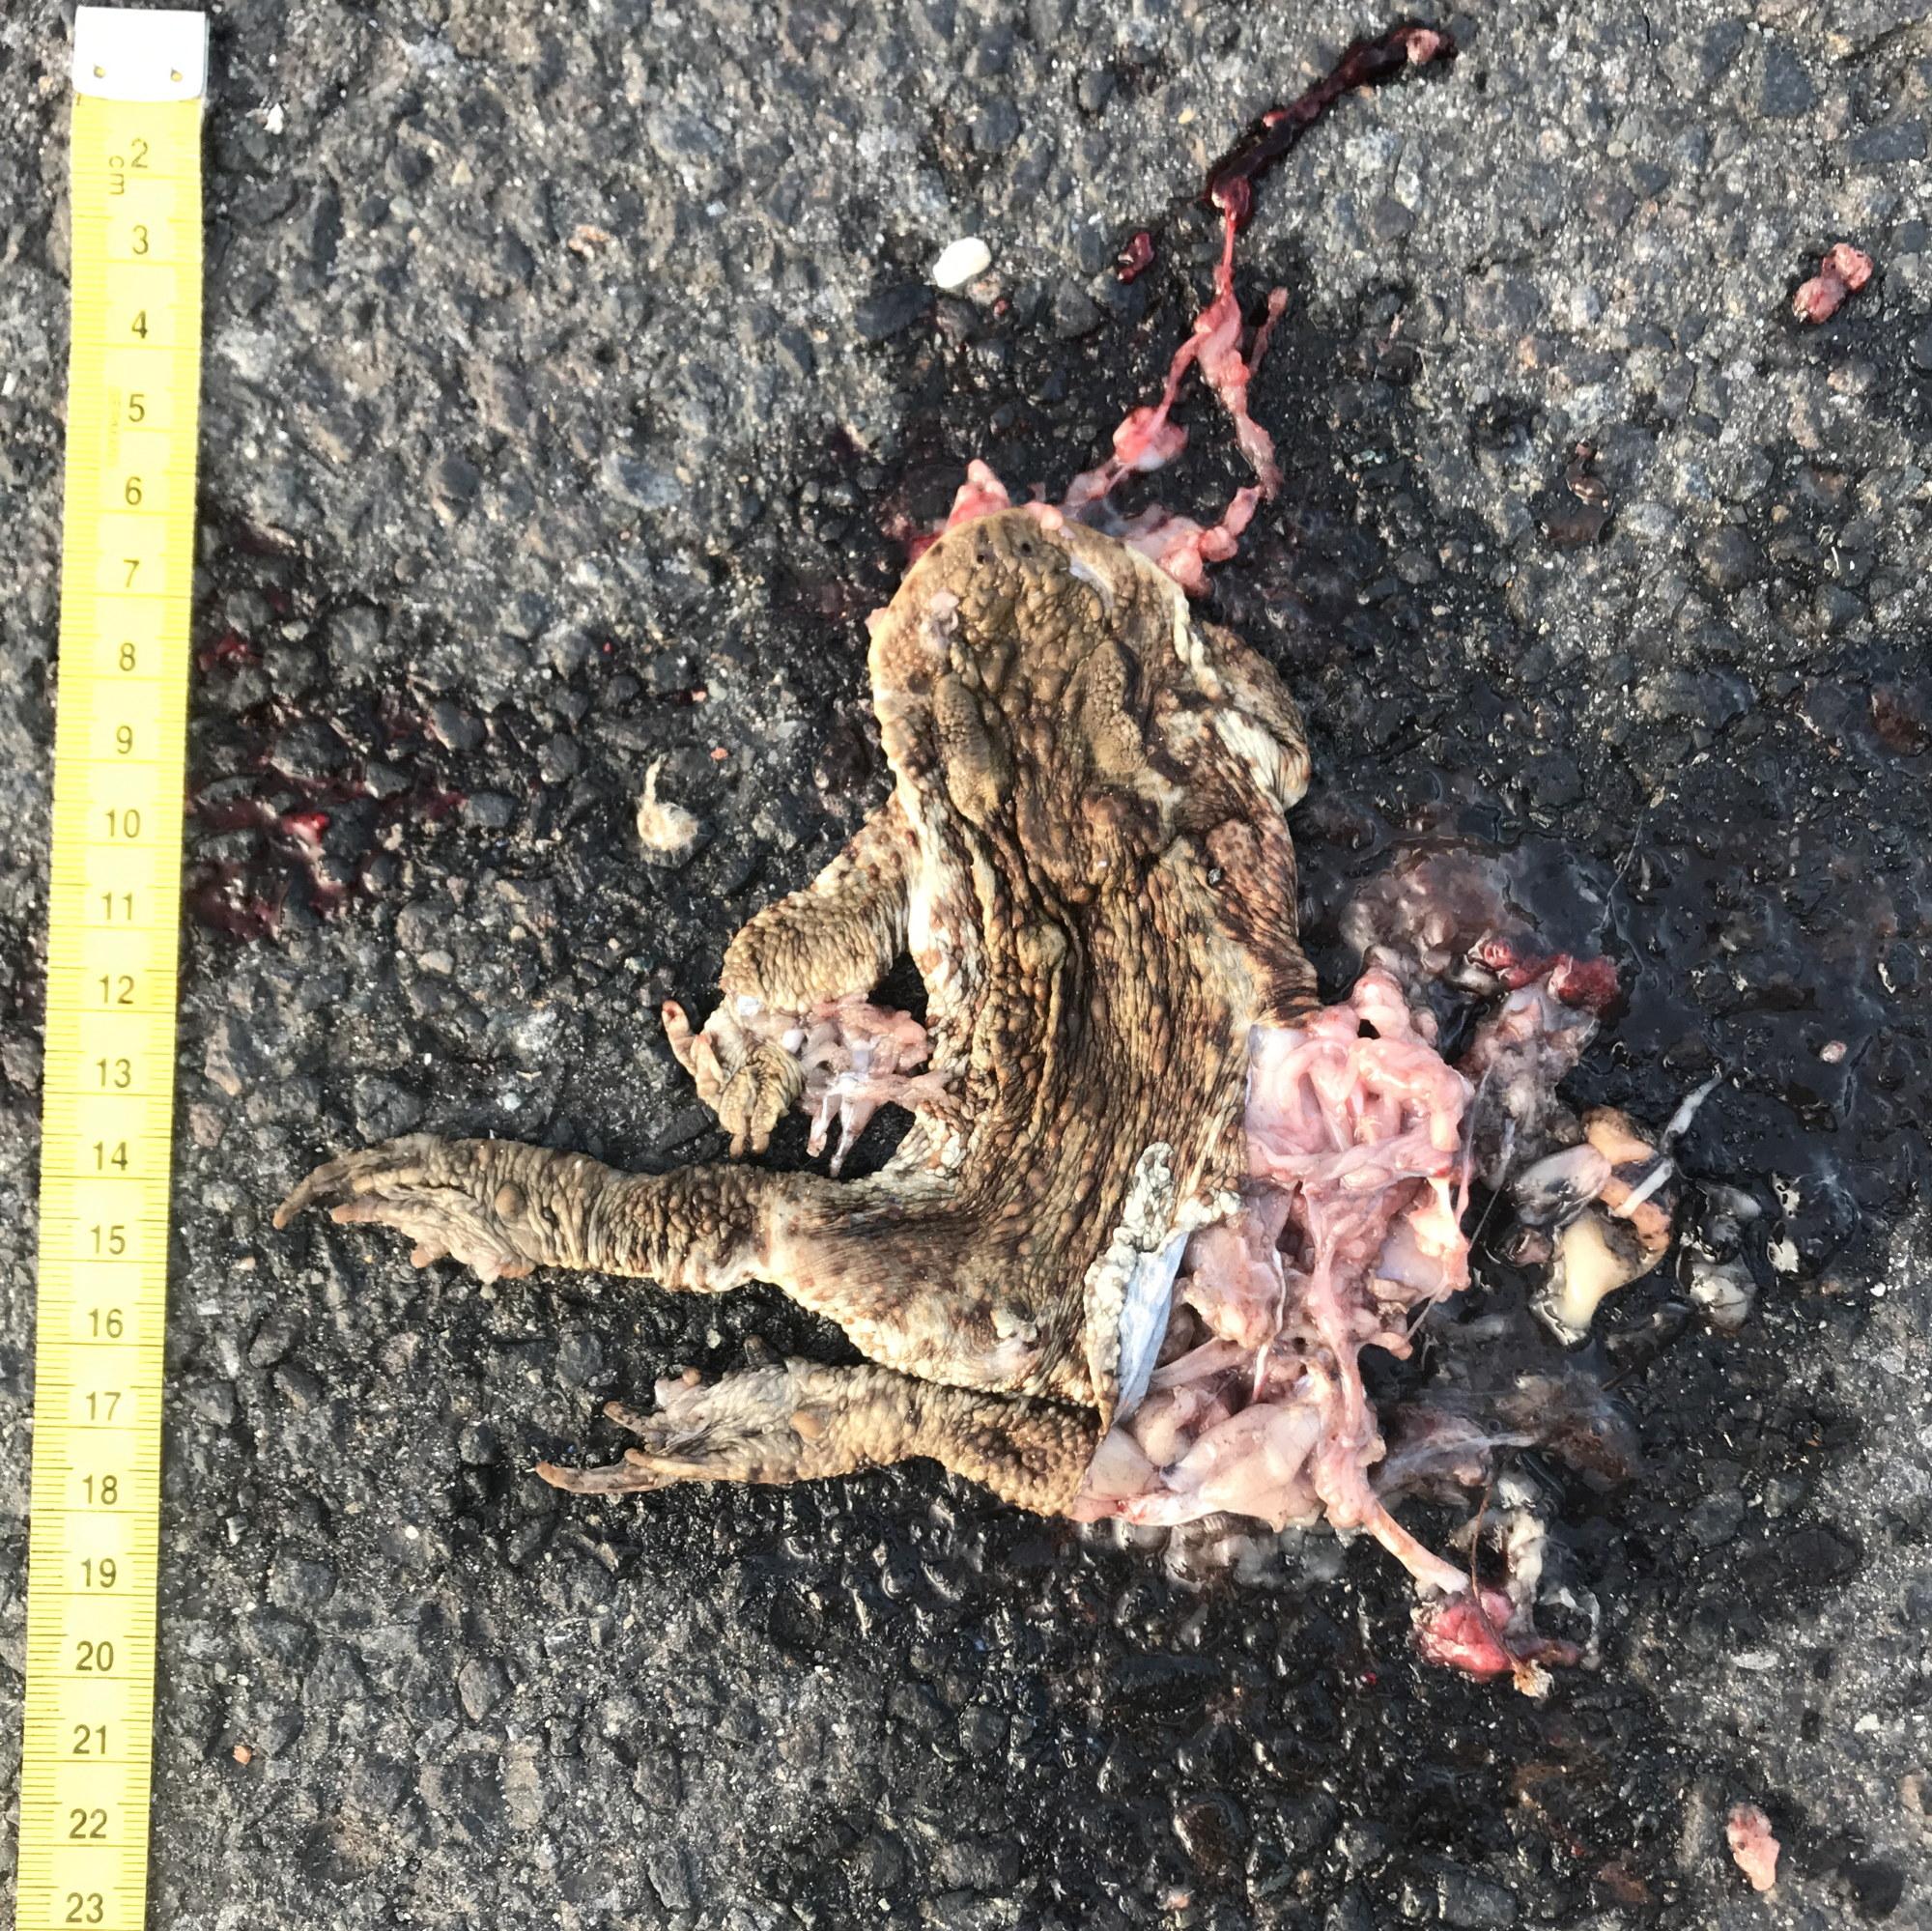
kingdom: Animalia
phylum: Chordata
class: Amphibia
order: Anura
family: Bufonidae
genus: Bufo
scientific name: Bufo bufo
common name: Common toad
